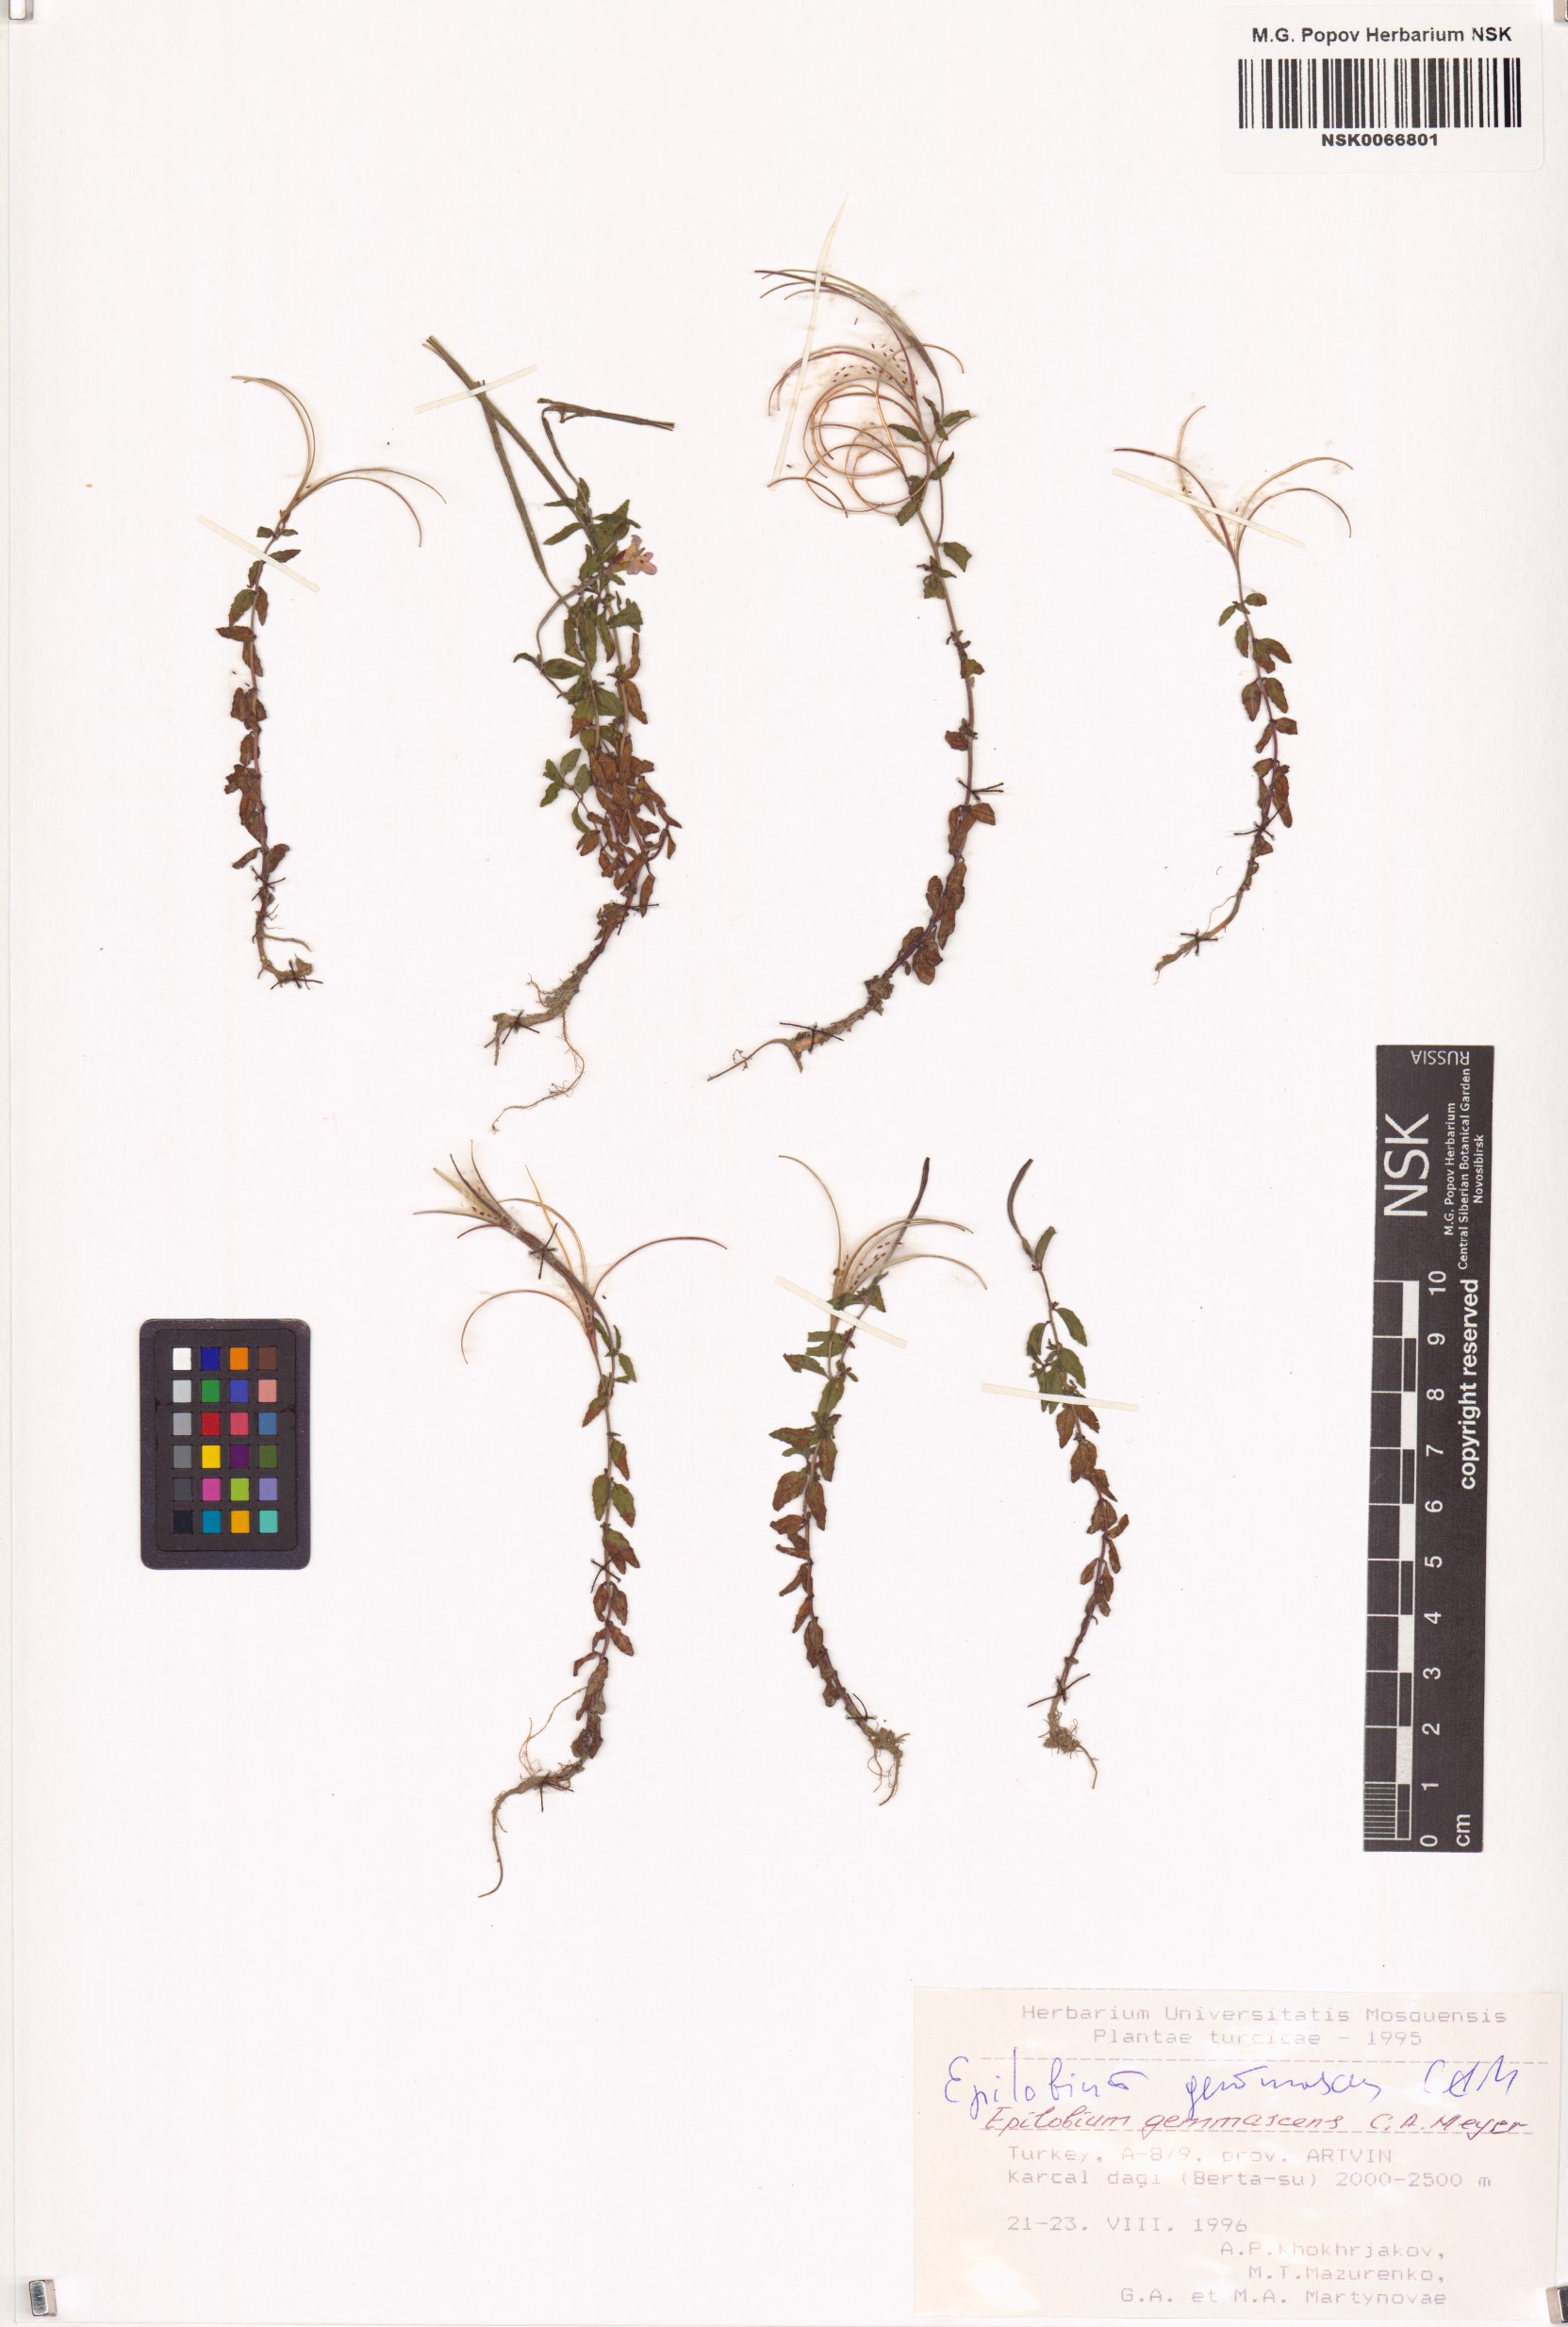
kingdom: Plantae
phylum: Tracheophyta
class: Magnoliopsida
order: Myrtales
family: Onagraceae
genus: Epilobium
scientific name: Epilobium gemmascens
